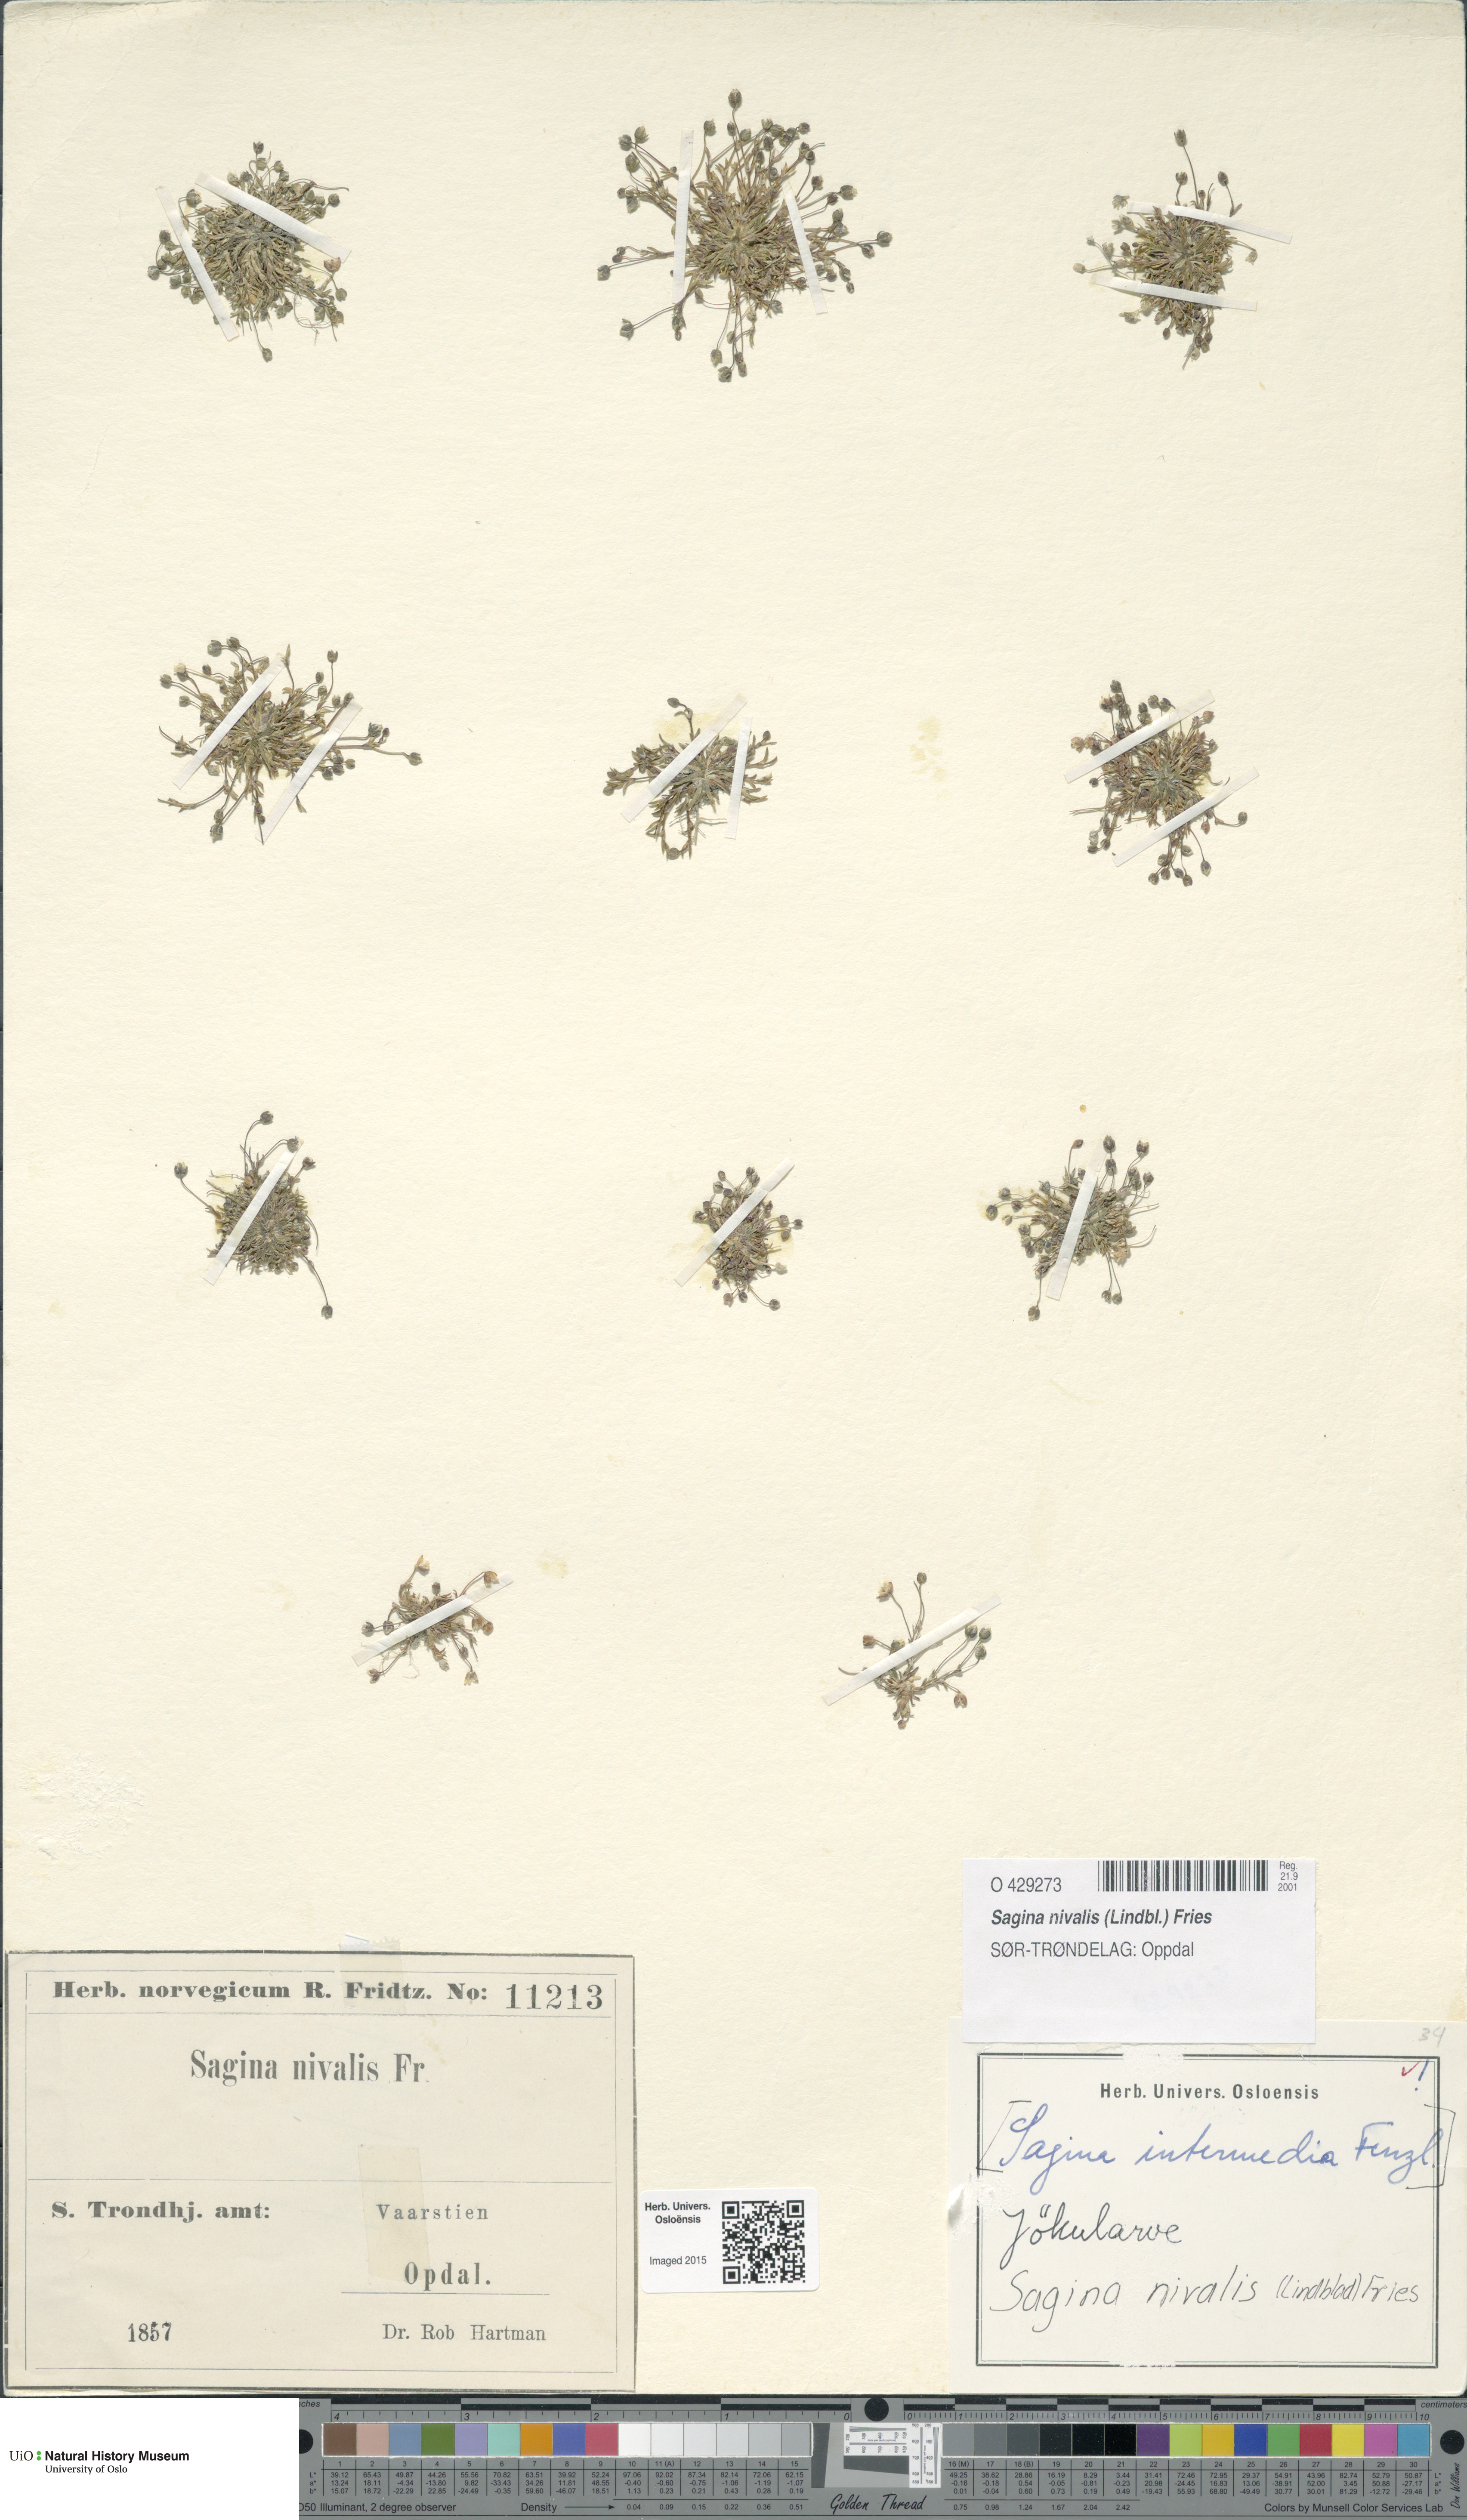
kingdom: Plantae
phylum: Tracheophyta
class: Magnoliopsida
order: Caryophyllales
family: Caryophyllaceae
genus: Sagina
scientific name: Sagina nivalis
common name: Snow pearlwort
